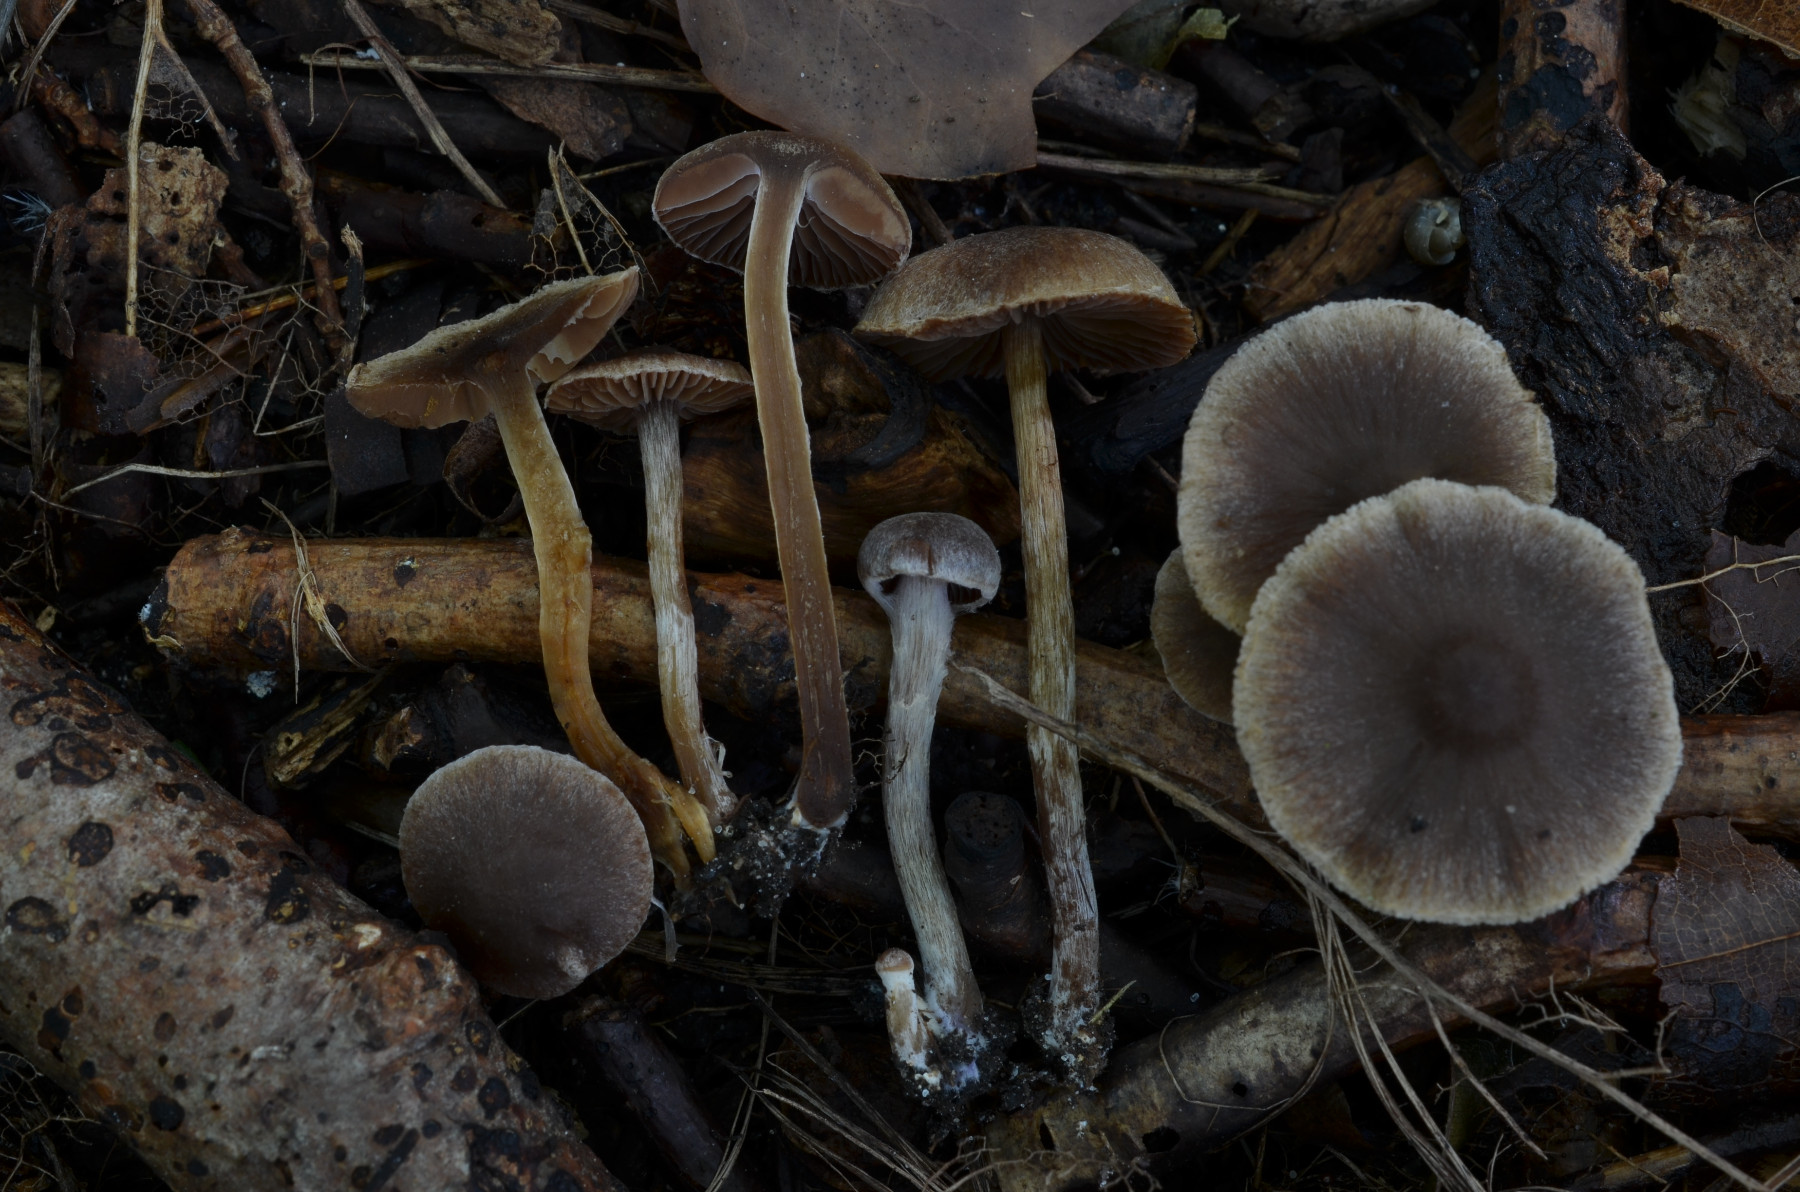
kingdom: Fungi
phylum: Basidiomycota
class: Agaricomycetes
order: Agaricales
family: Cortinariaceae
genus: Cortinarius
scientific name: Cortinarius desertorum
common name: skær slørhat
